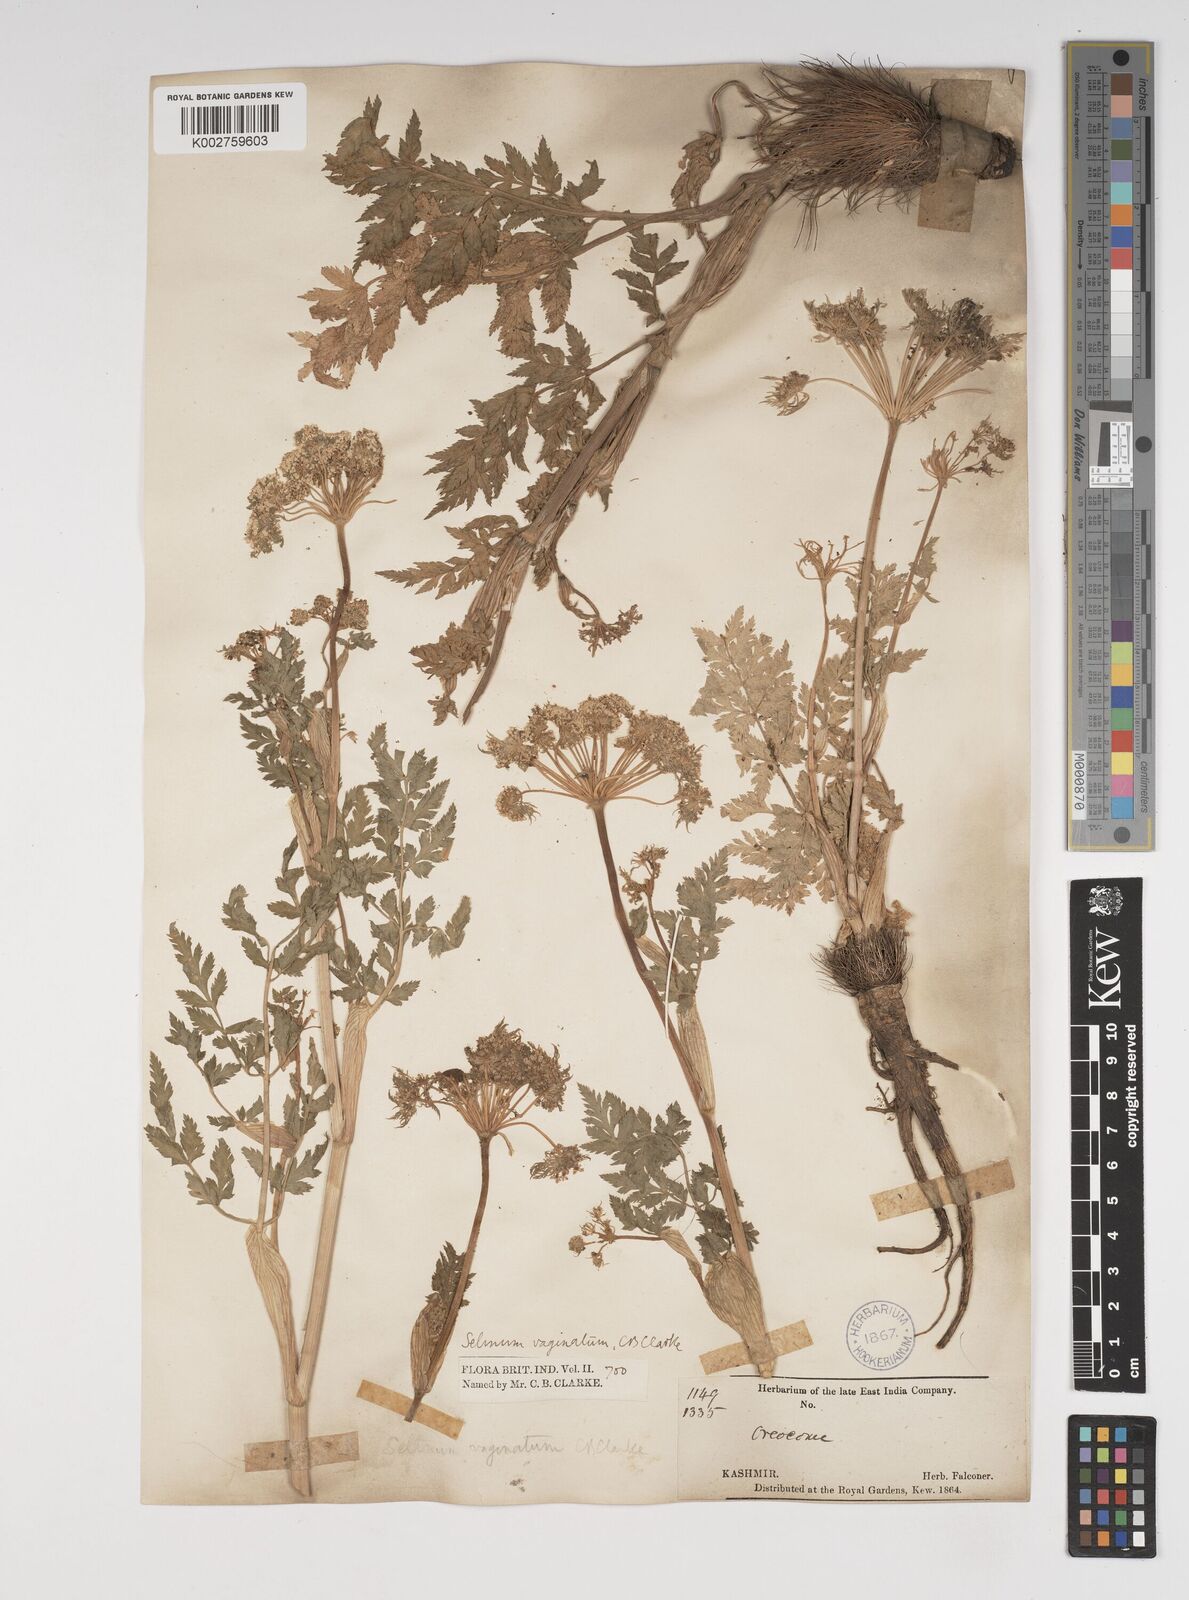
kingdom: Plantae
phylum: Tracheophyta
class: Magnoliopsida
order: Apiales
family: Apiaceae
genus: Selinum
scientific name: Selinum vaginatum
